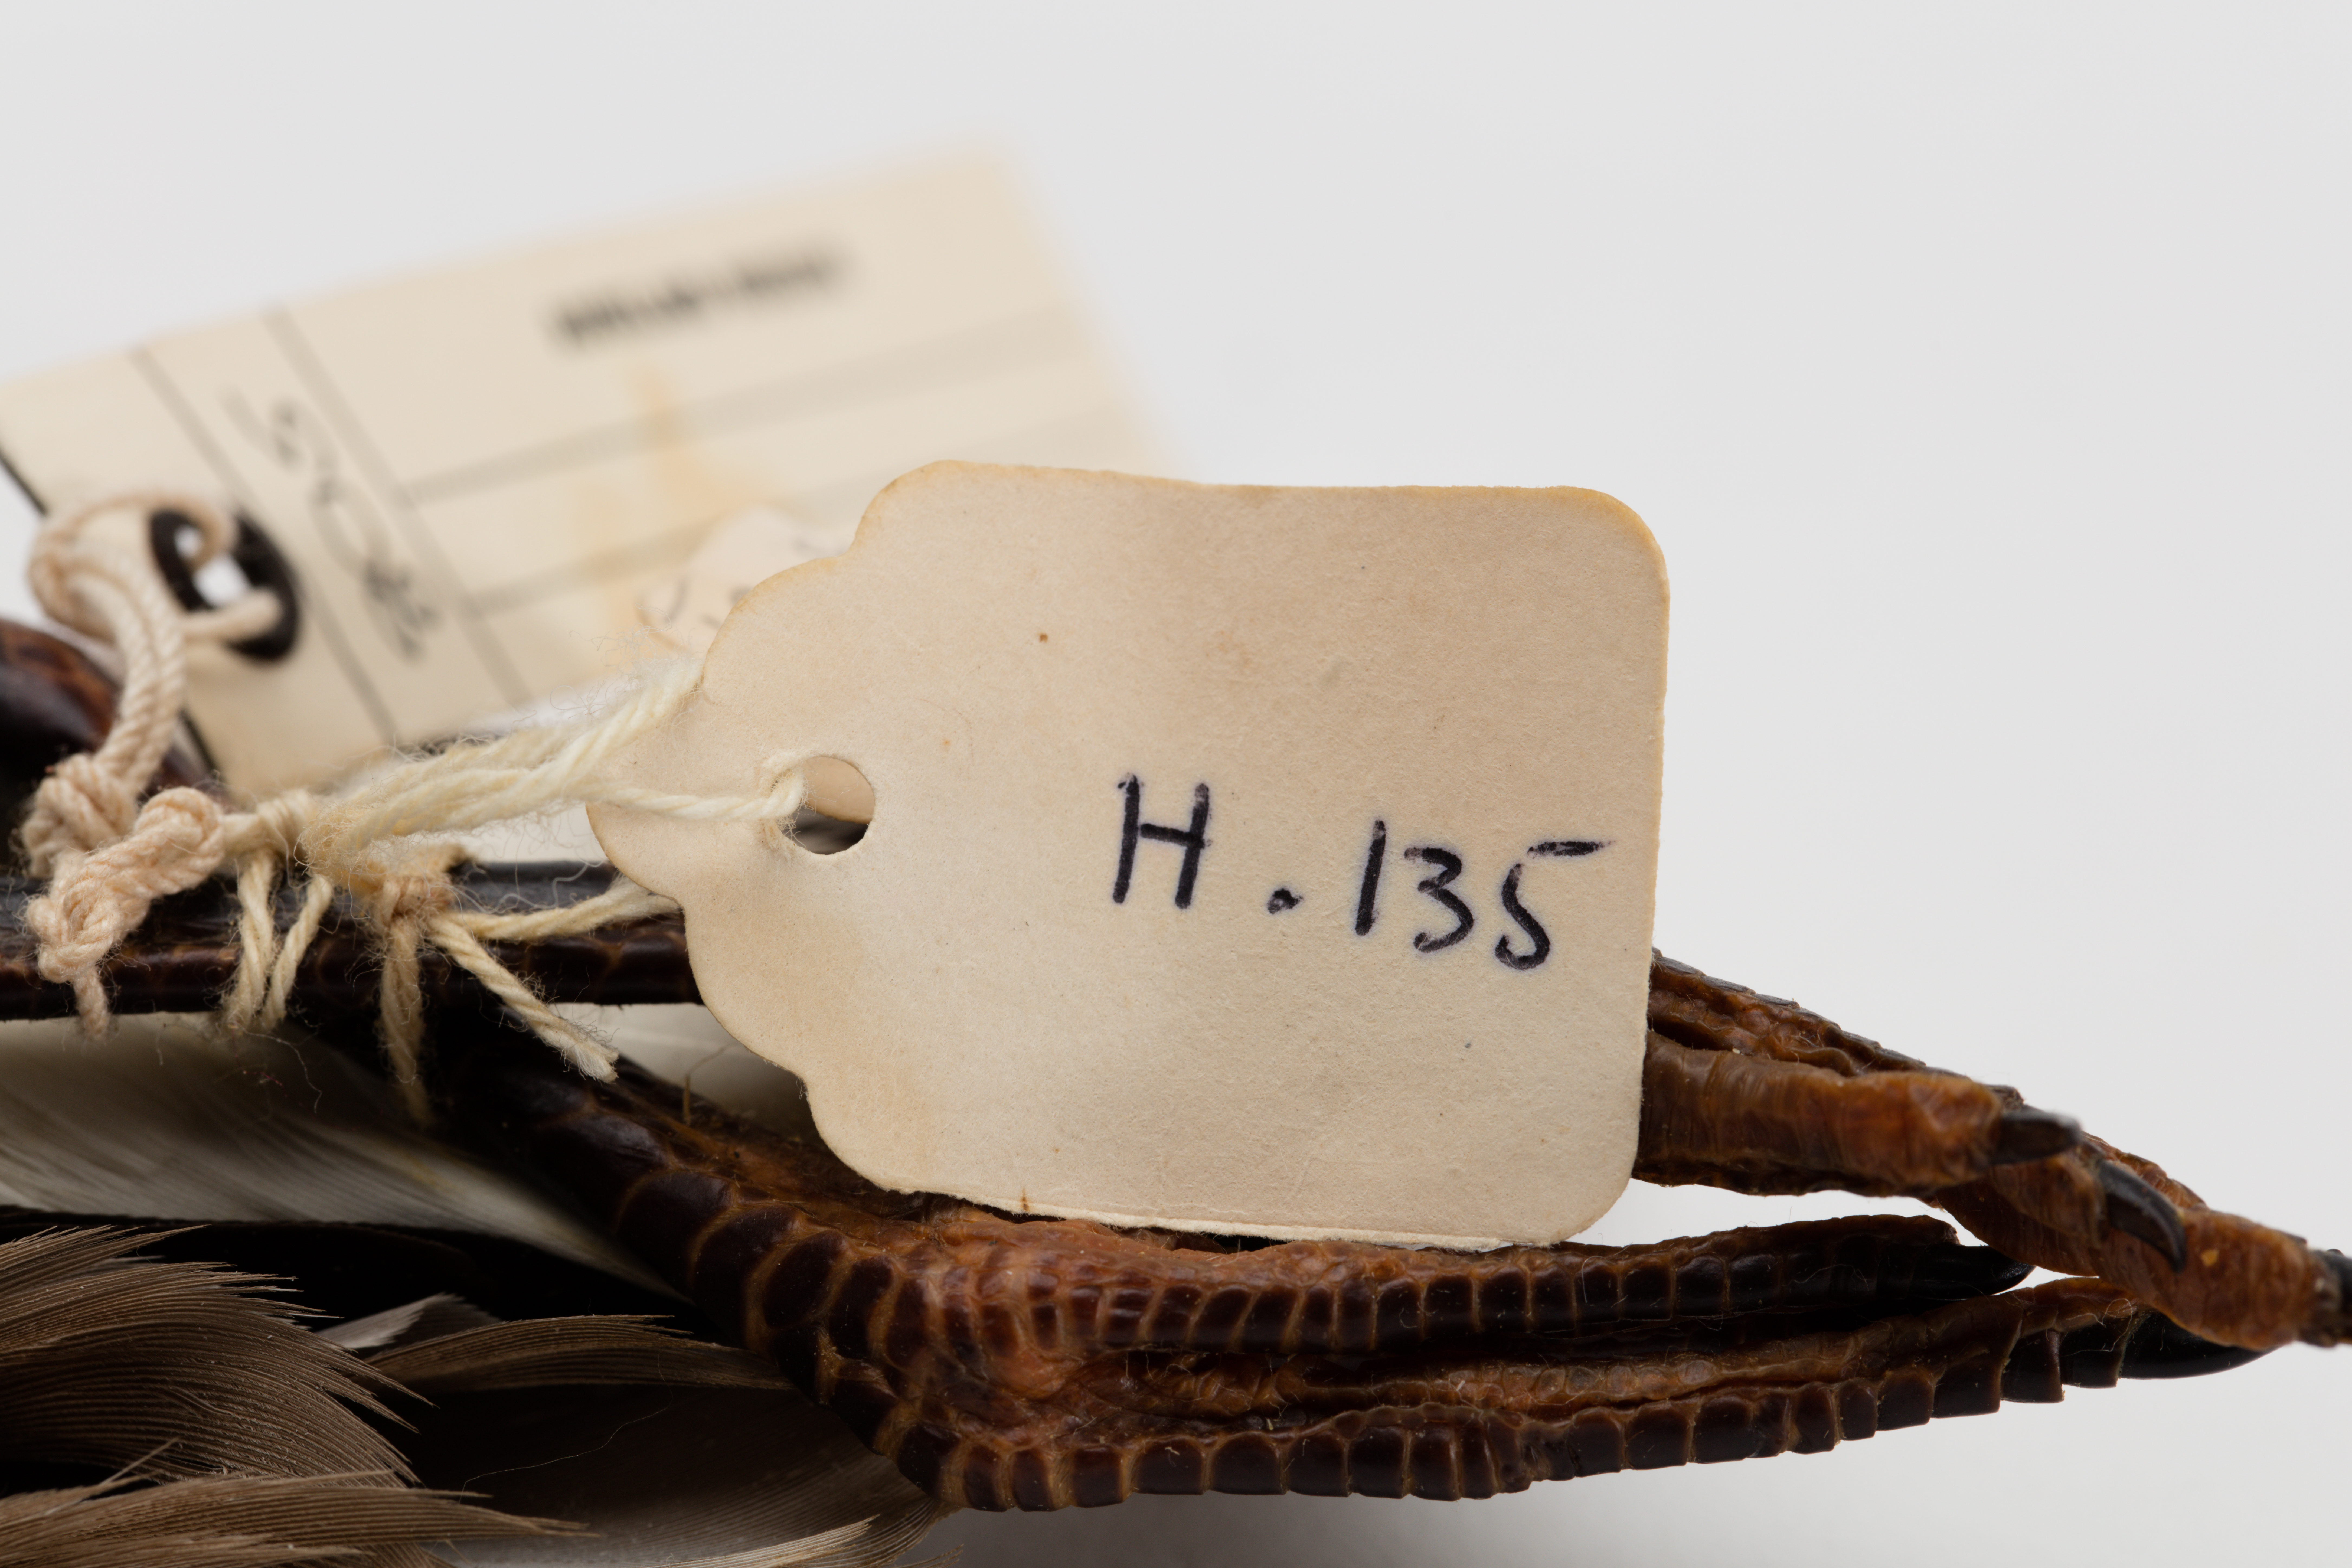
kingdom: Animalia
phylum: Chordata
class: Aves
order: Charadriiformes
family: Charadriidae
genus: Vanellus
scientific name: Vanellus miles
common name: Masked lapwing
